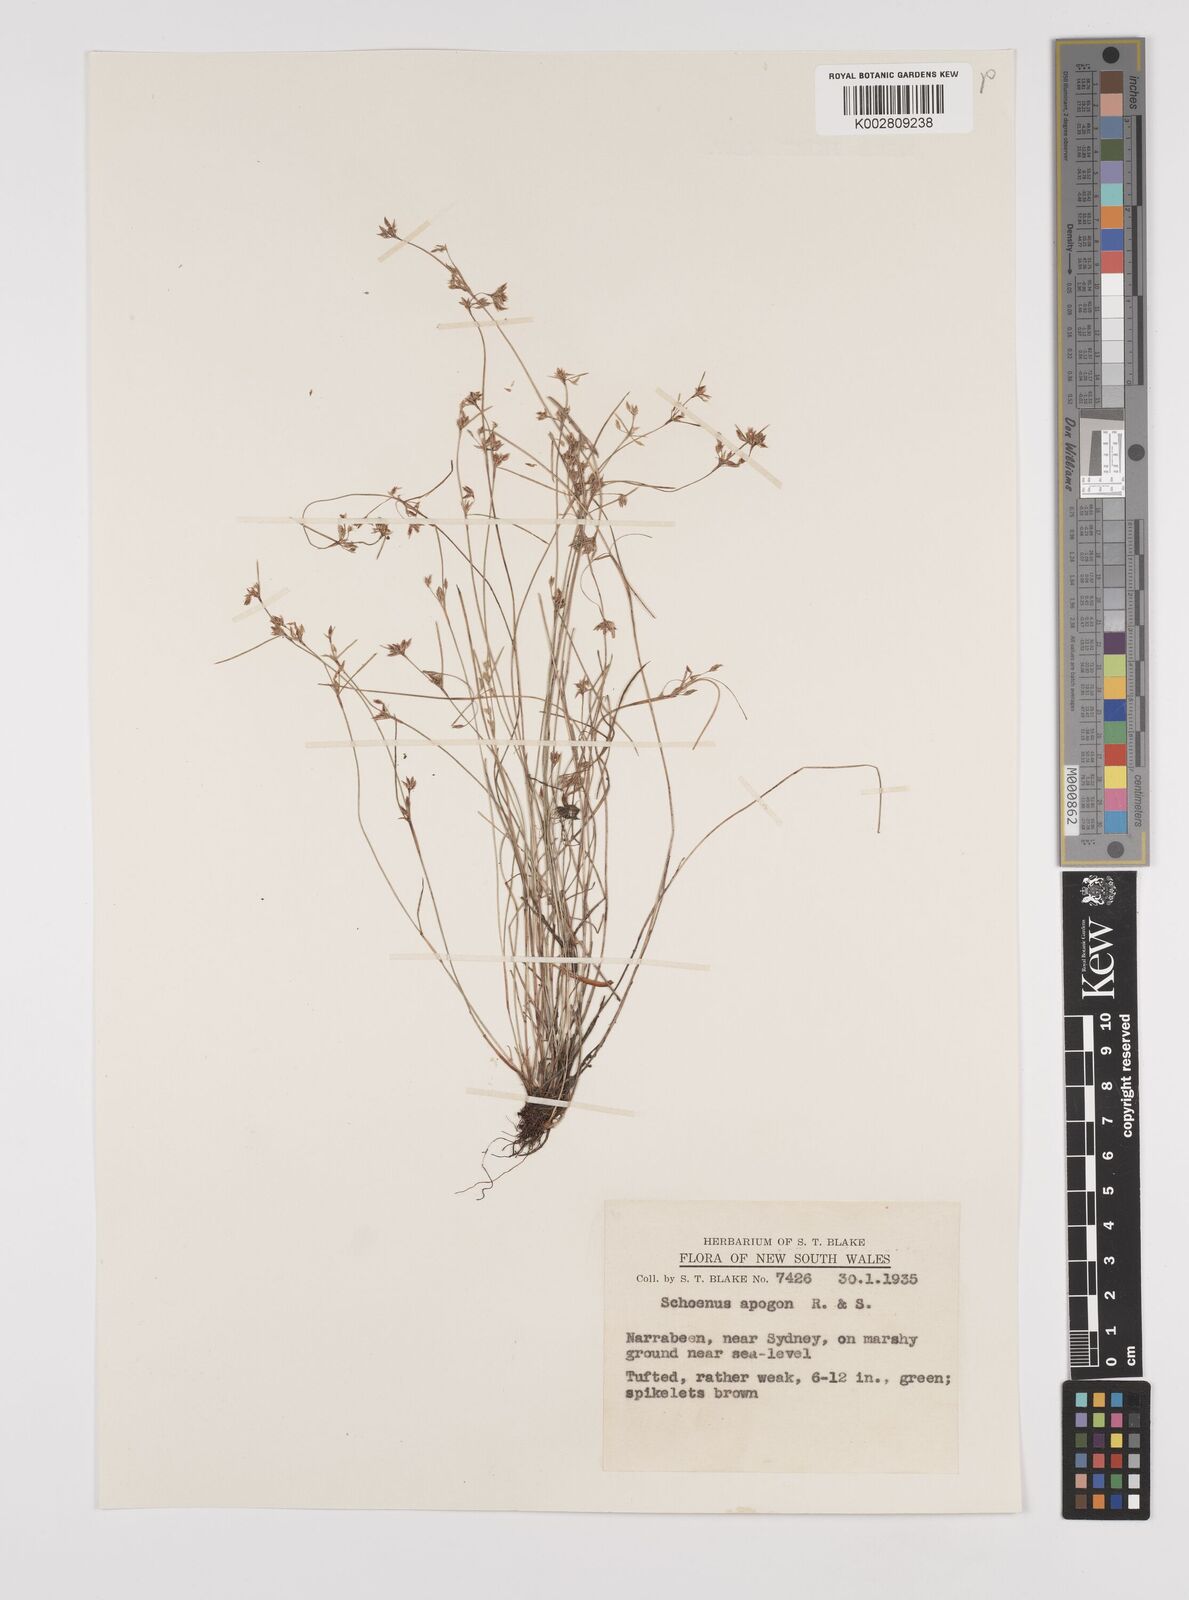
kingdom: Plantae
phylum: Tracheophyta
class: Liliopsida
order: Poales
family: Cyperaceae
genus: Schoenus
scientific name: Schoenus apogon
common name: Smooth bogrush
